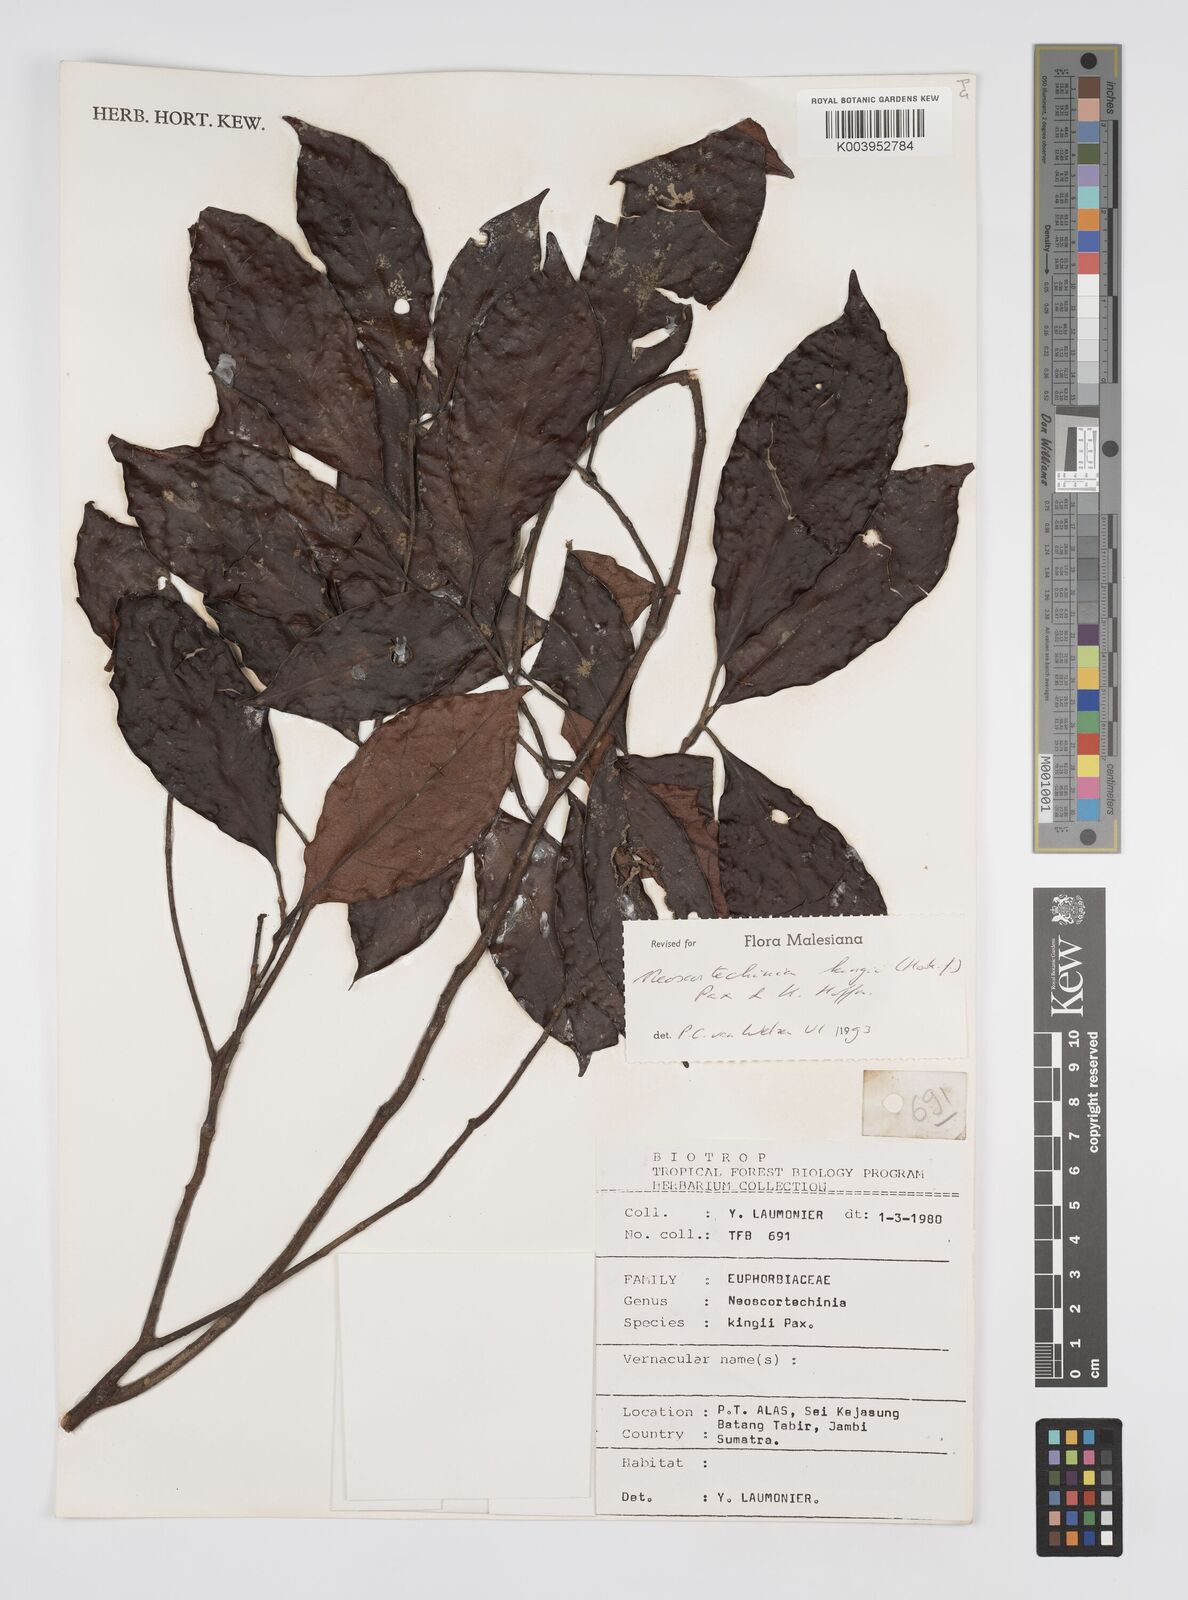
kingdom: Plantae
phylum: Tracheophyta
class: Magnoliopsida
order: Malpighiales
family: Euphorbiaceae
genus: Neoscortechinia
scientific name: Neoscortechinia kingii
